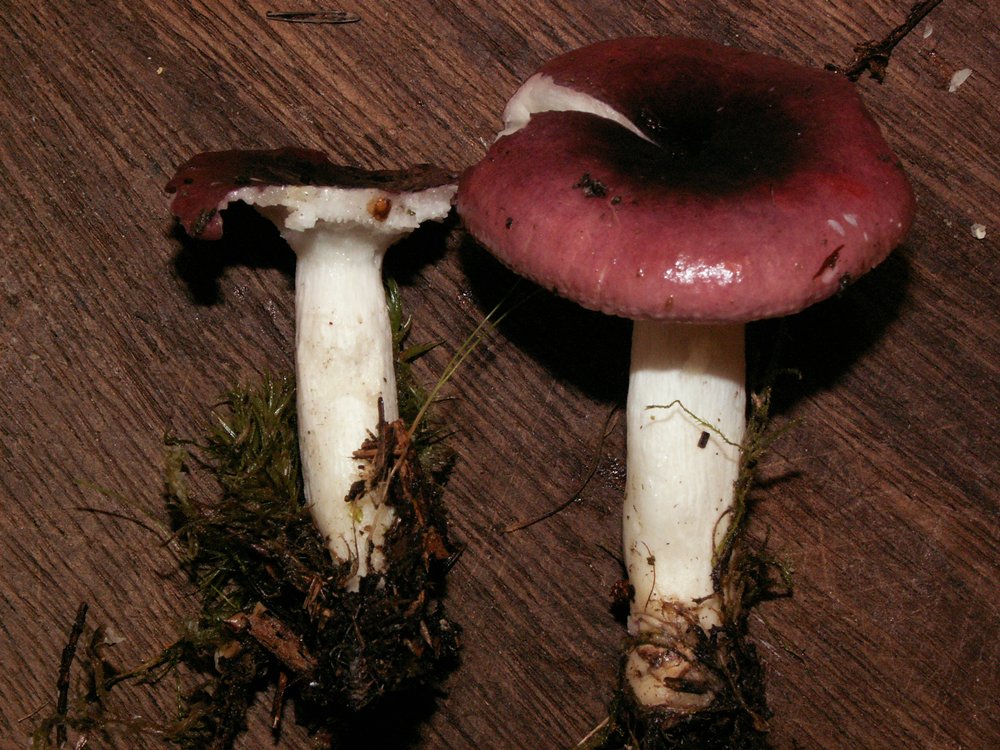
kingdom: Fungi
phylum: Basidiomycota
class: Agaricomycetes
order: Russulales
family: Russulaceae
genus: Russula
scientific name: Russula atrorubens
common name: sortrød skørhat
